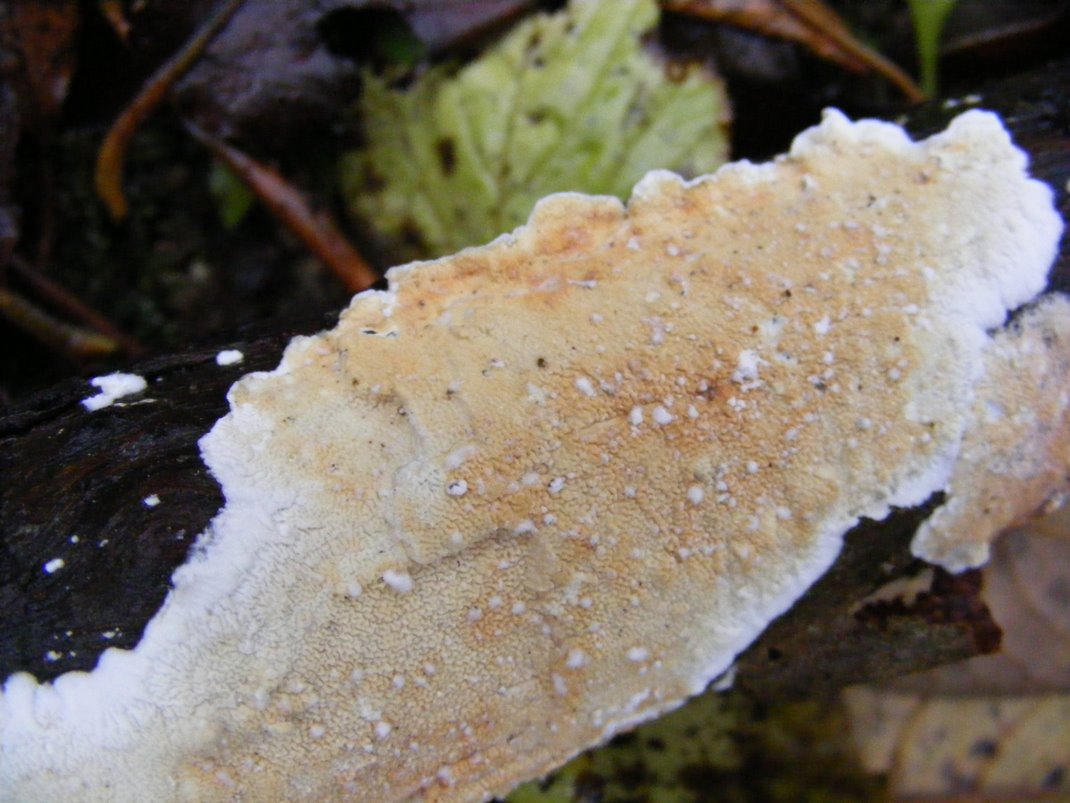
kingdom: Fungi
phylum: Basidiomycota
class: Agaricomycetes
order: Polyporales
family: Irpicaceae
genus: Byssomerulius
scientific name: Byssomerulius corium
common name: læder-åresvamp
